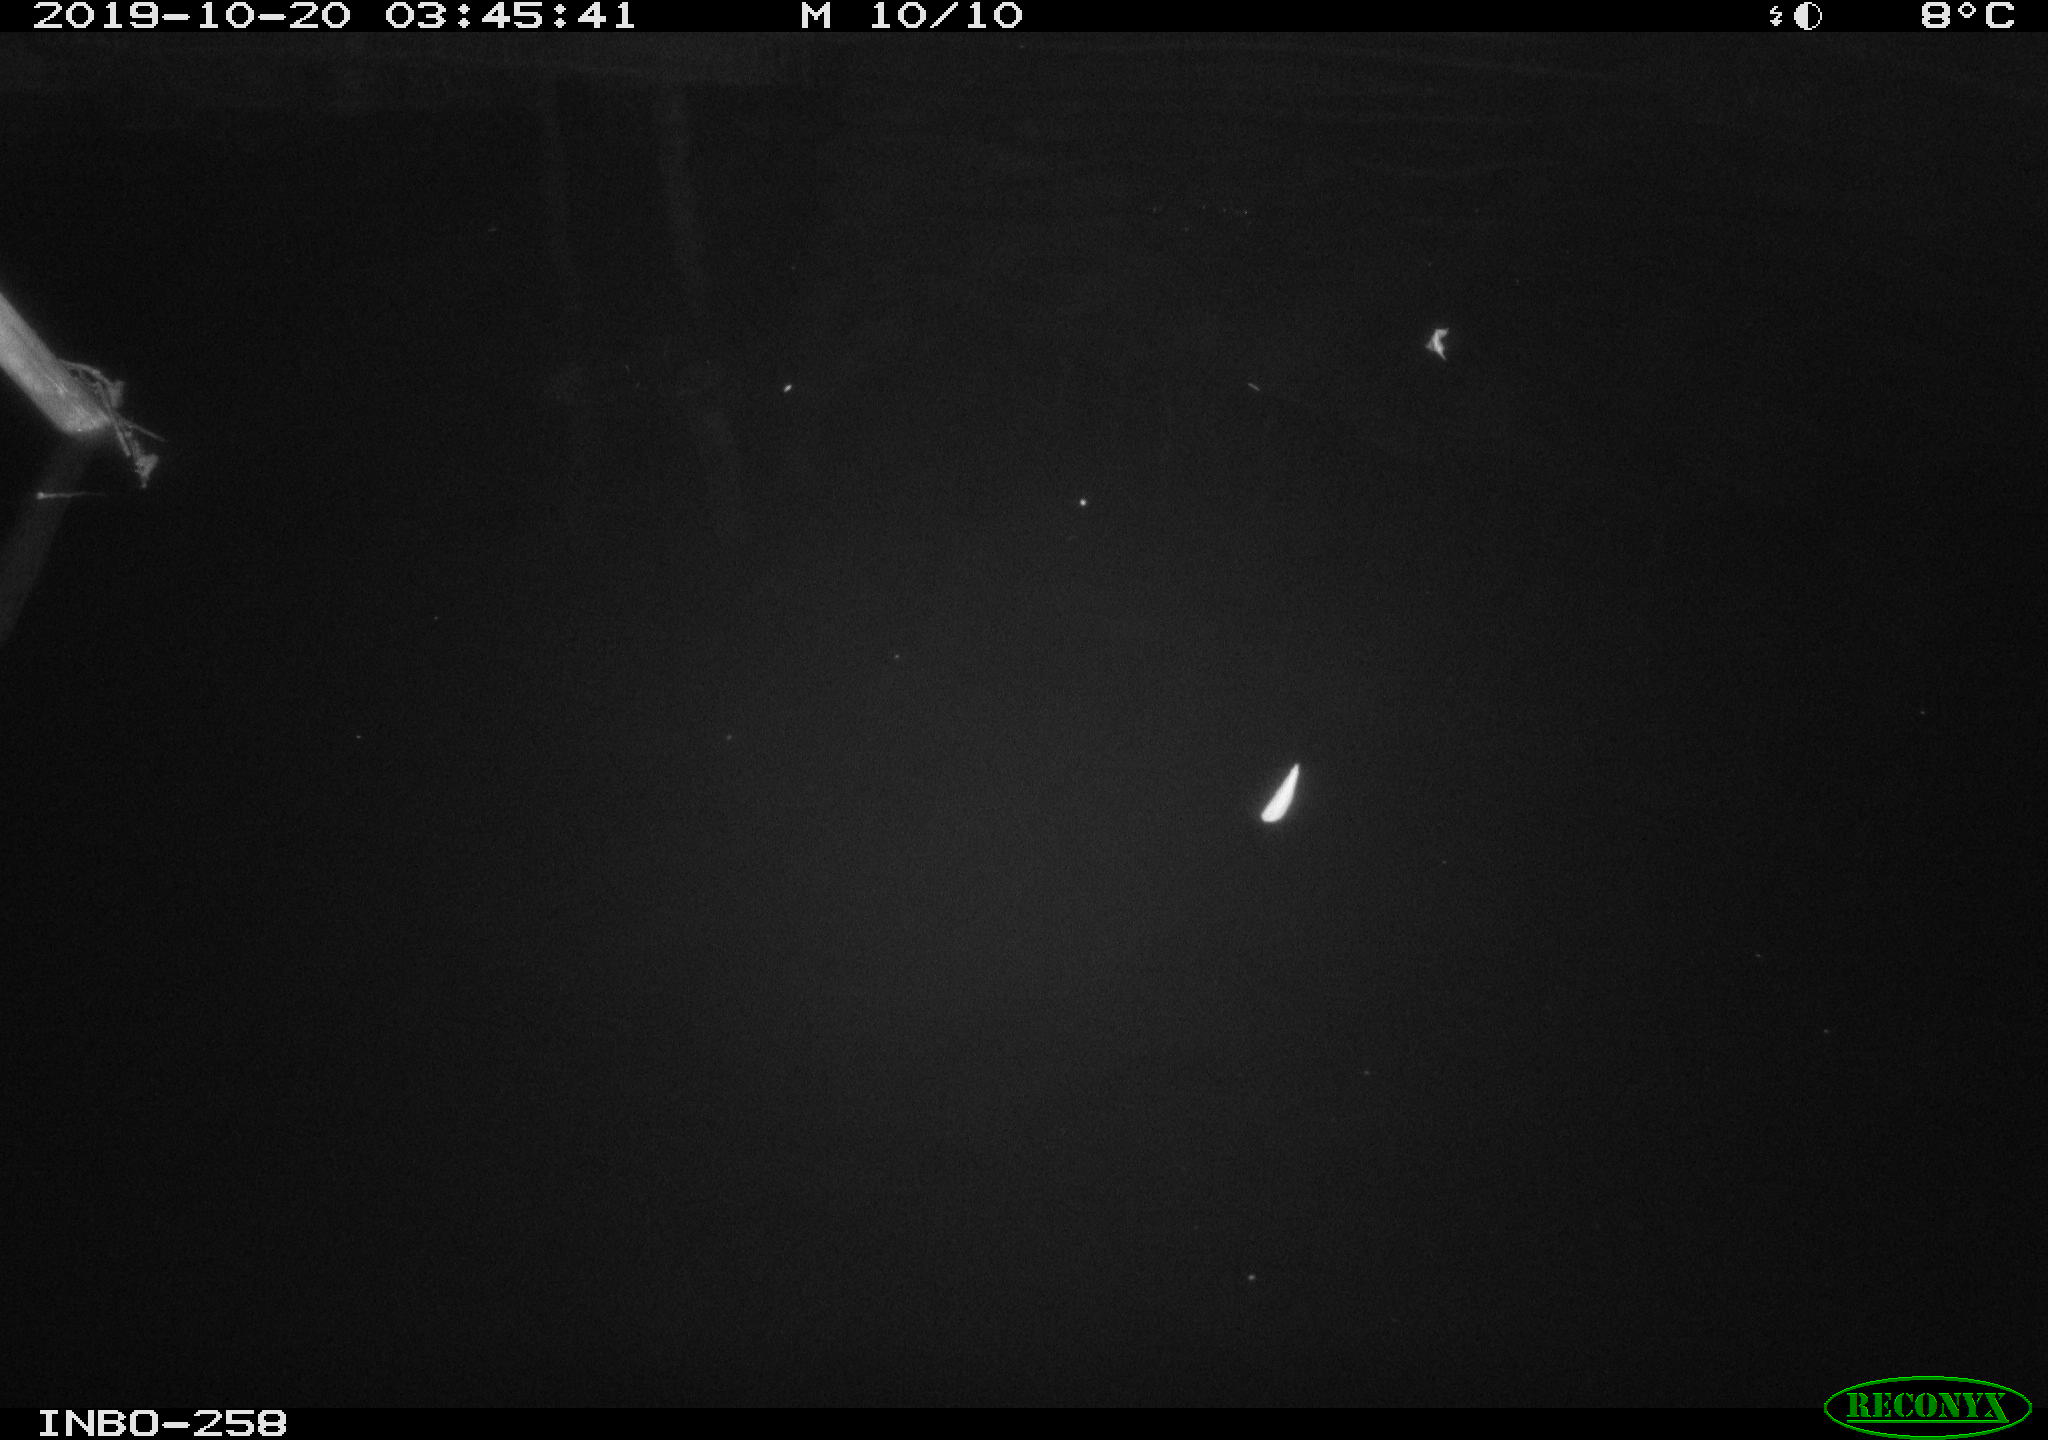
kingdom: Animalia
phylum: Chordata
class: Aves
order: Anseriformes
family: Anatidae
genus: Anas
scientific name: Anas platyrhynchos
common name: Mallard
